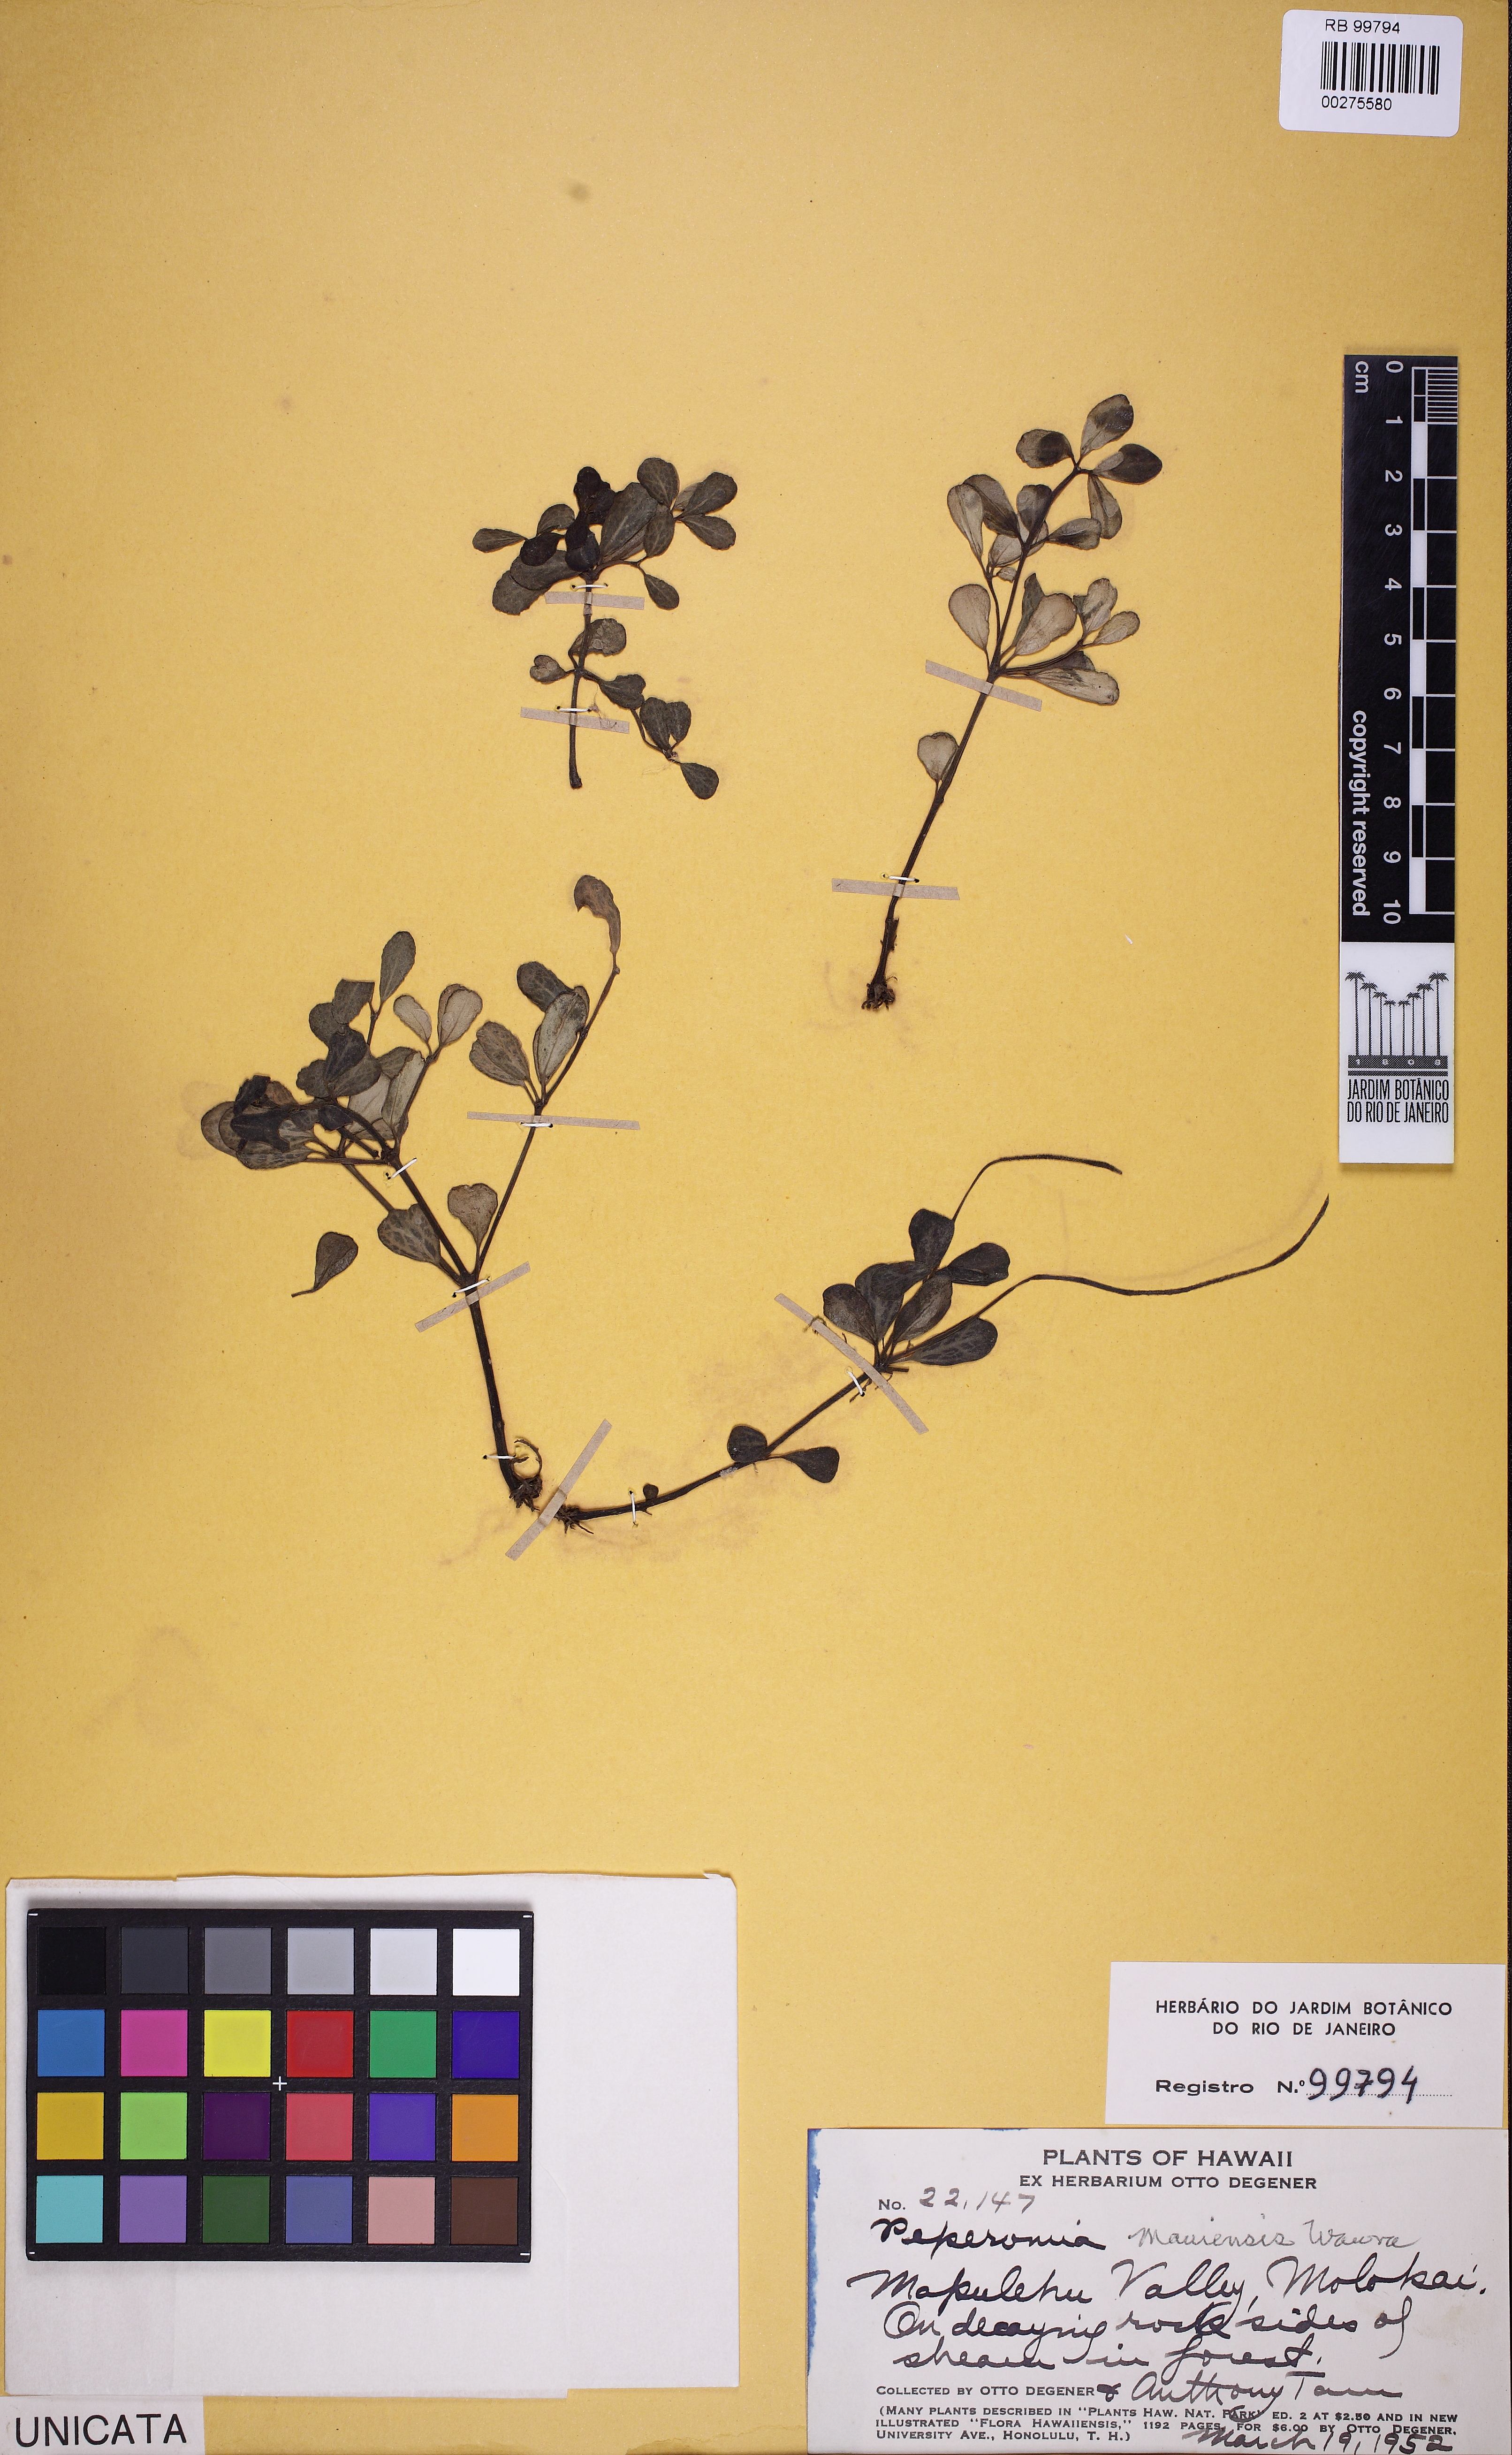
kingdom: Plantae
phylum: Tracheophyta
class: Magnoliopsida
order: Piperales
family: Piperaceae
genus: Peperomia
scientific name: Peperomia mauiensis
